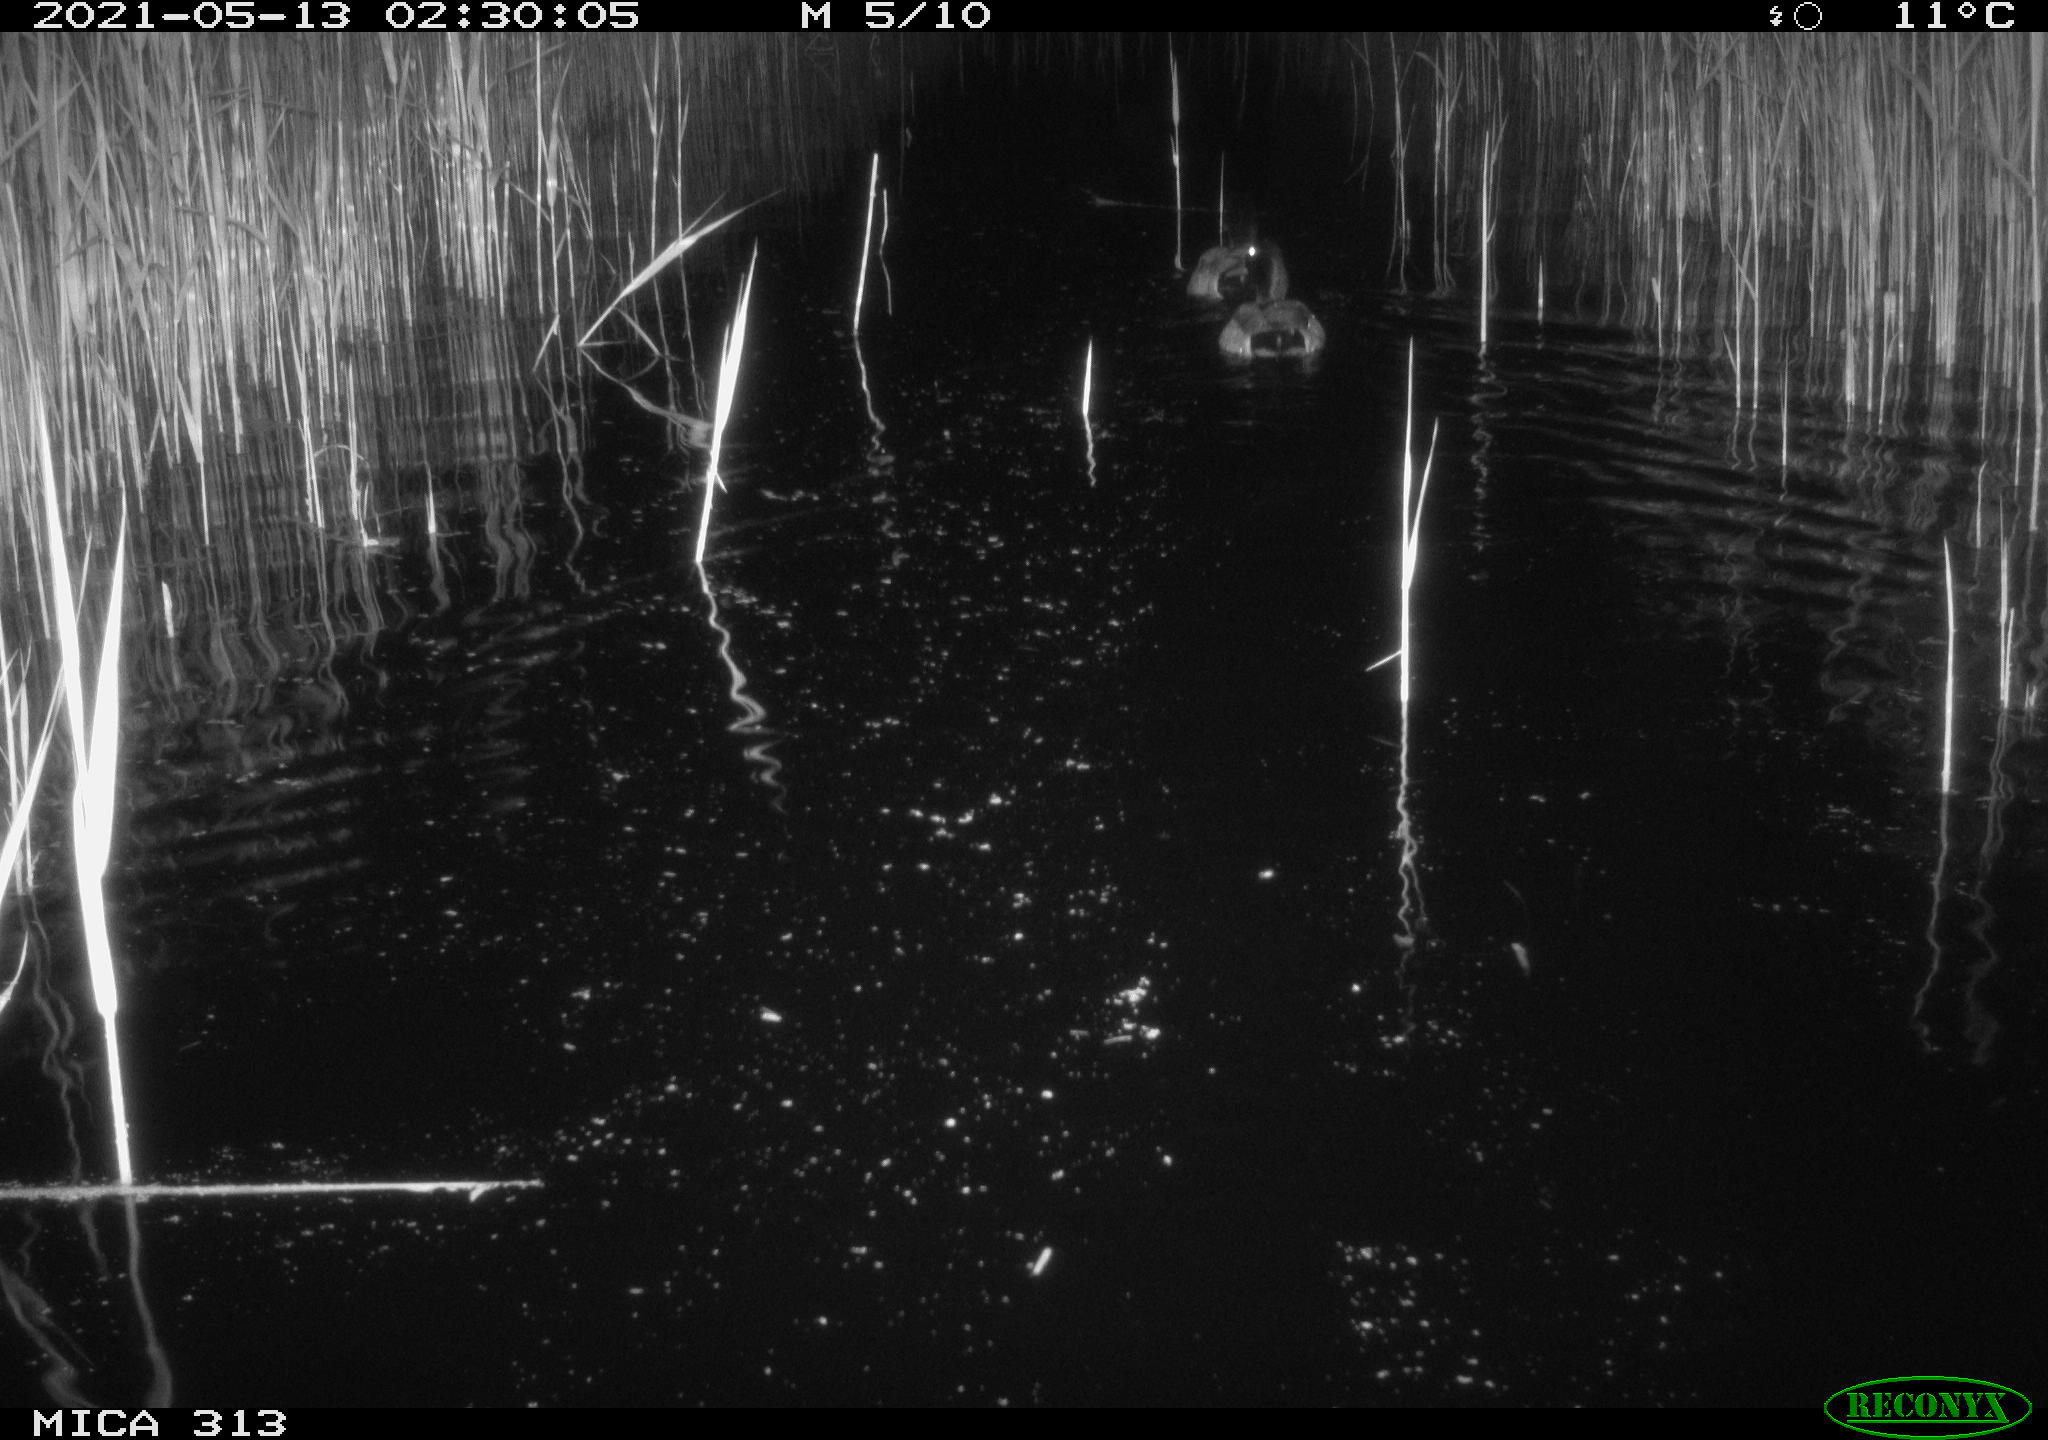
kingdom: Animalia
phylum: Chordata
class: Aves
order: Anseriformes
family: Anatidae
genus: Anas
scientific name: Anas platyrhynchos
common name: Mallard
